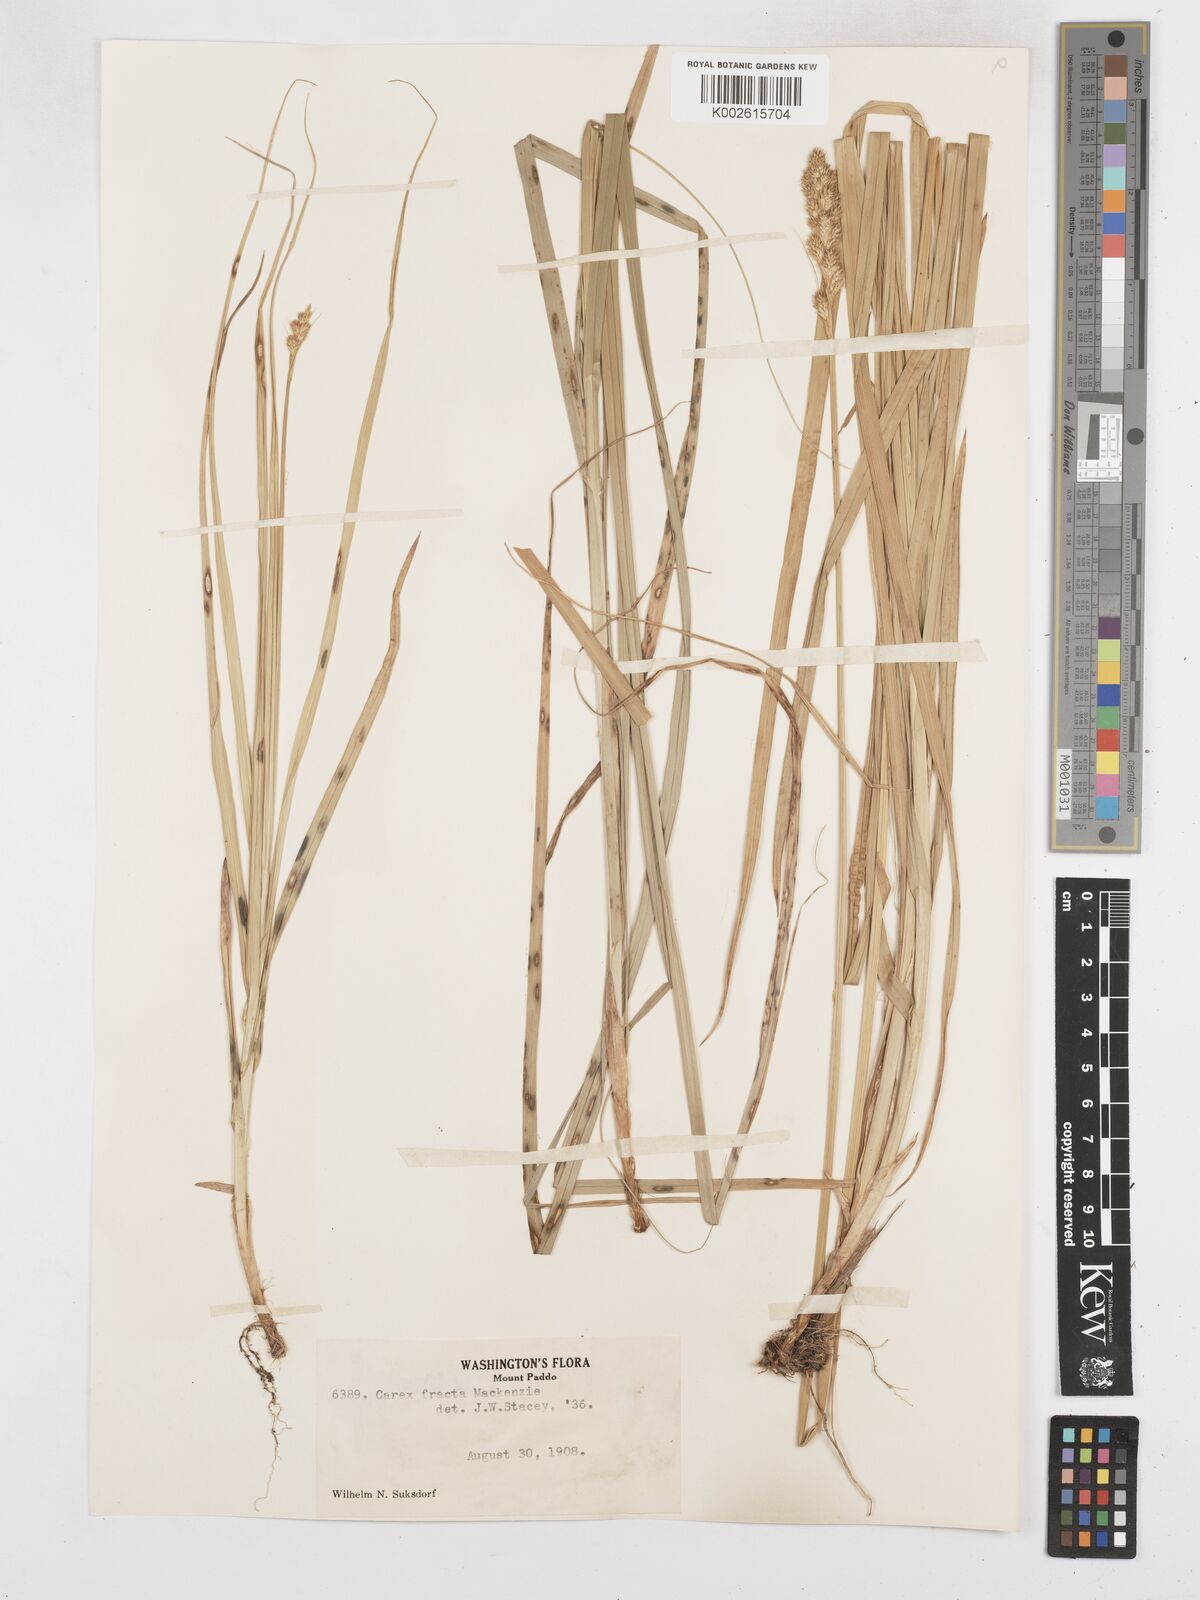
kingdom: Plantae
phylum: Tracheophyta
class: Liliopsida
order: Poales
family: Cyperaceae
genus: Carex
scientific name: Carex fracta
